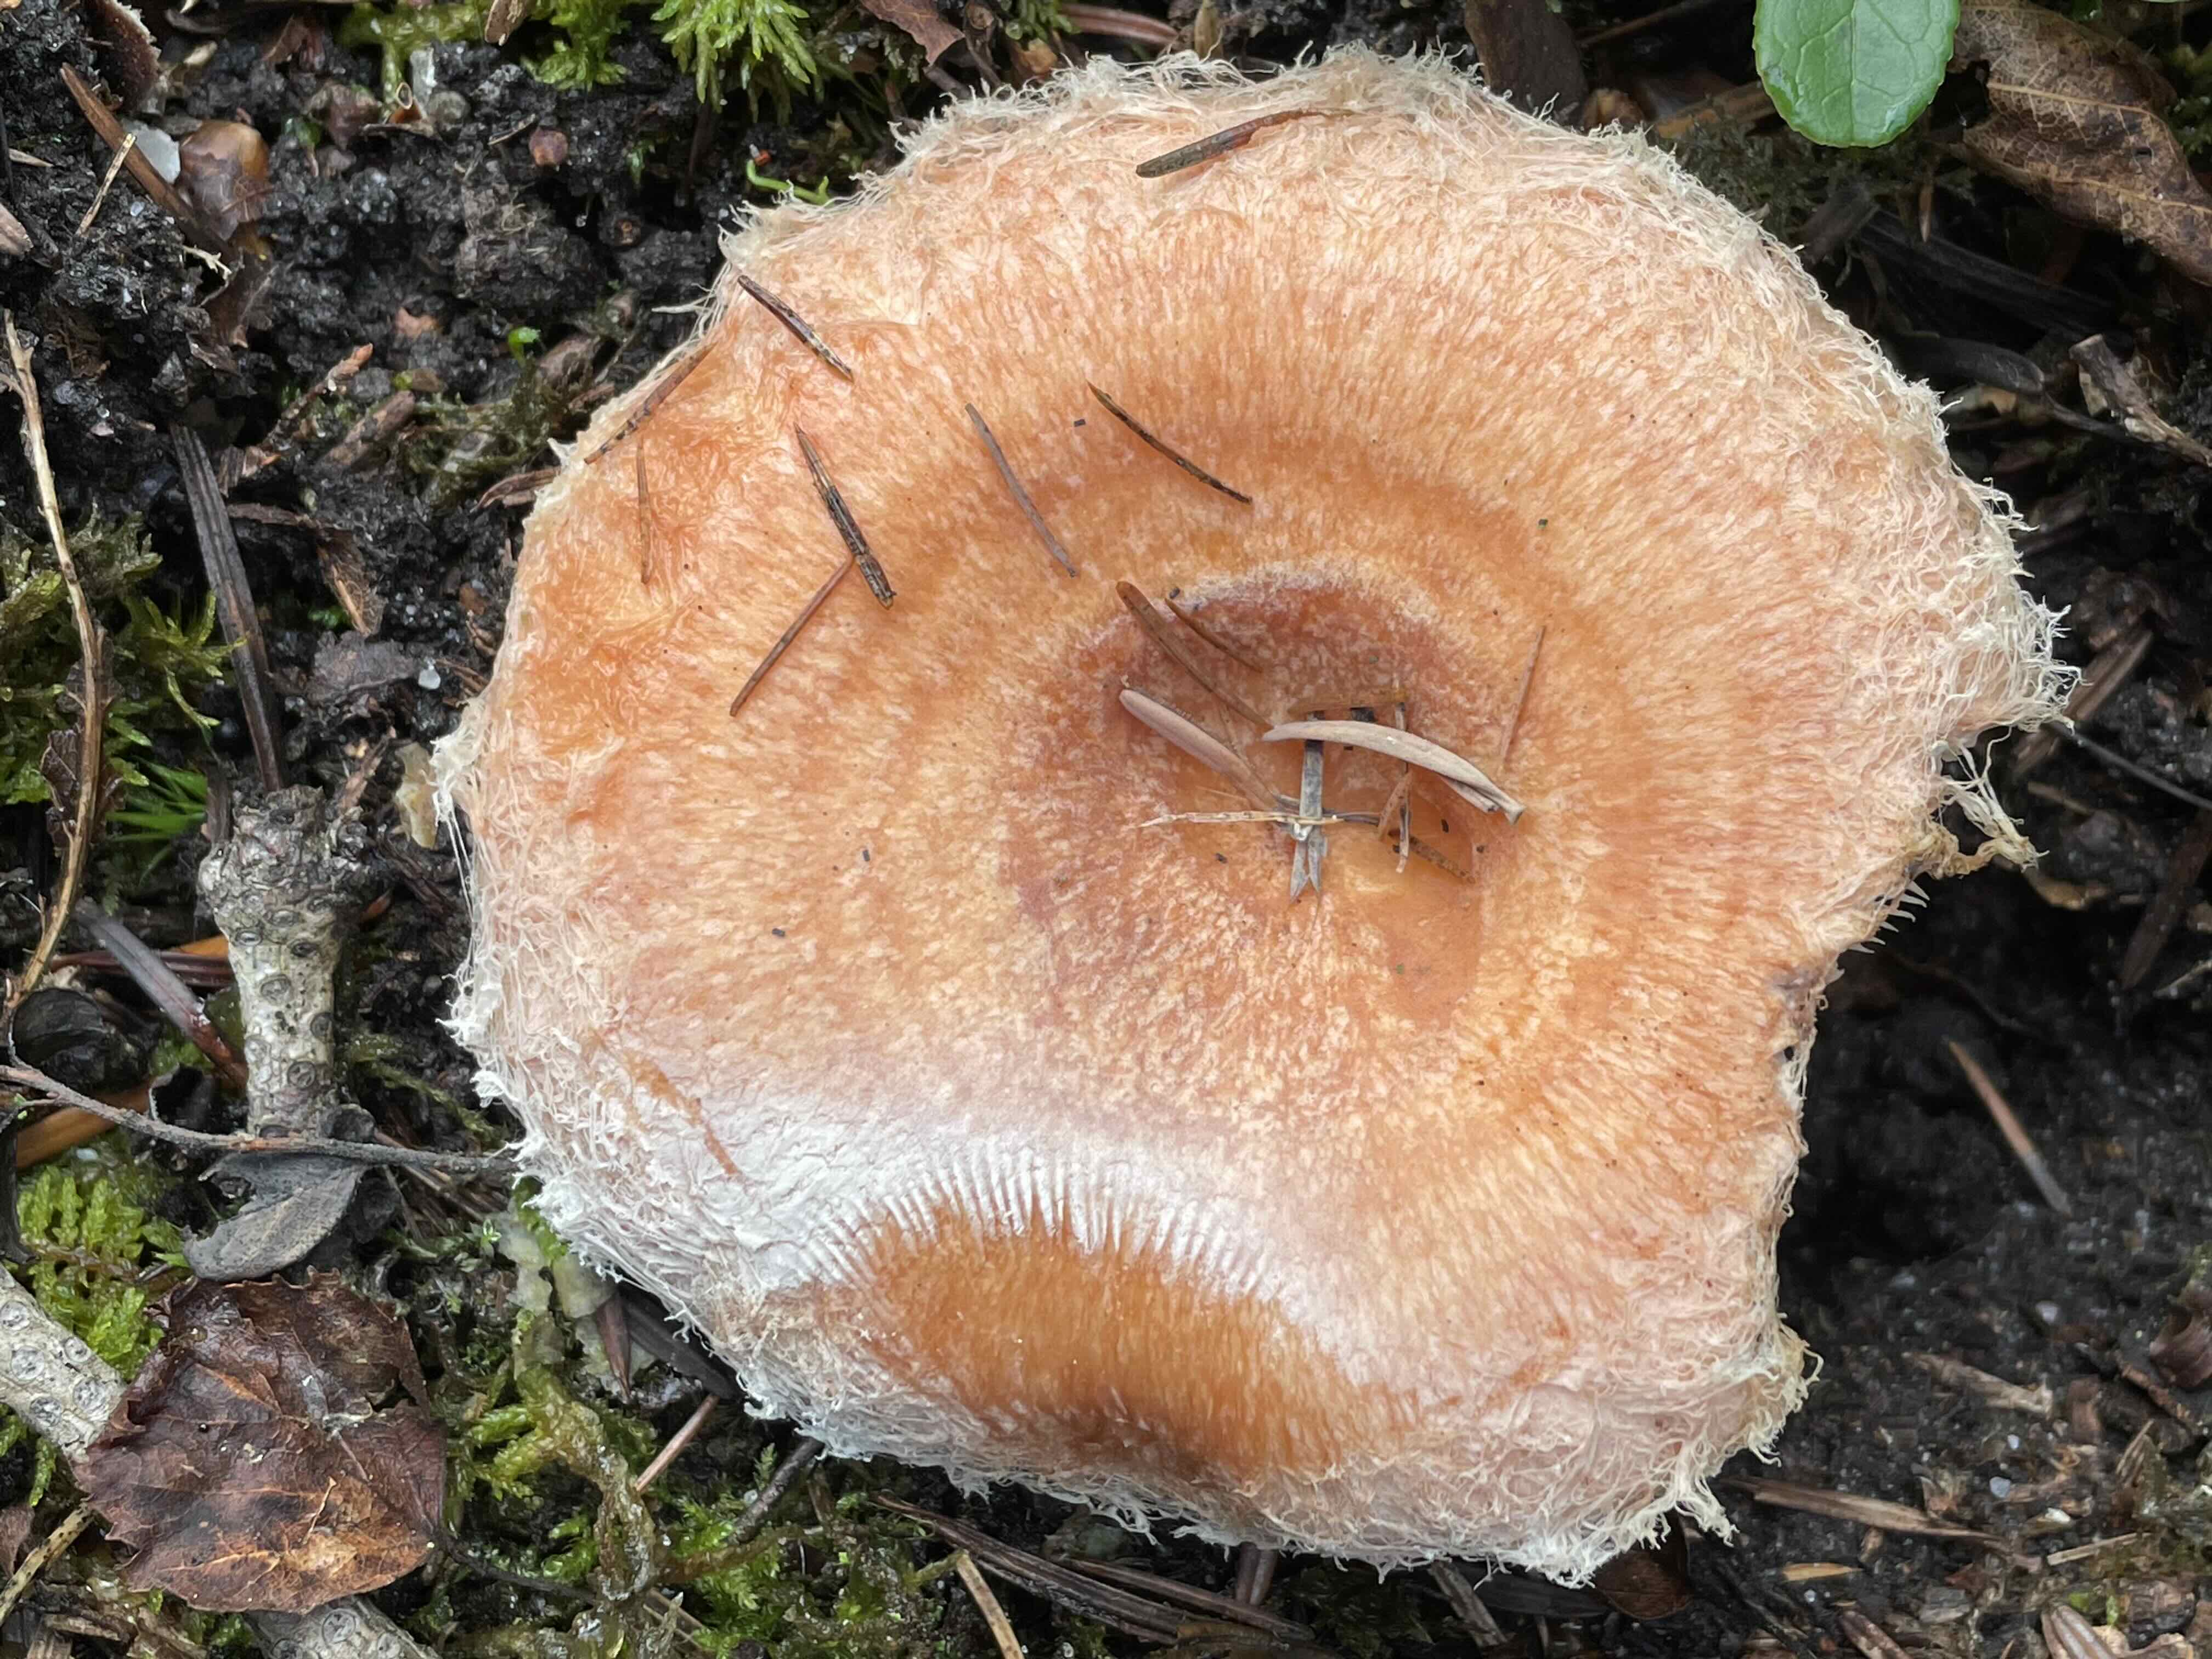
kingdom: Fungi
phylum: Basidiomycota
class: Agaricomycetes
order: Russulales
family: Russulaceae
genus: Lactarius
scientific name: Lactarius torminosus
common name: skægget mælkehat
